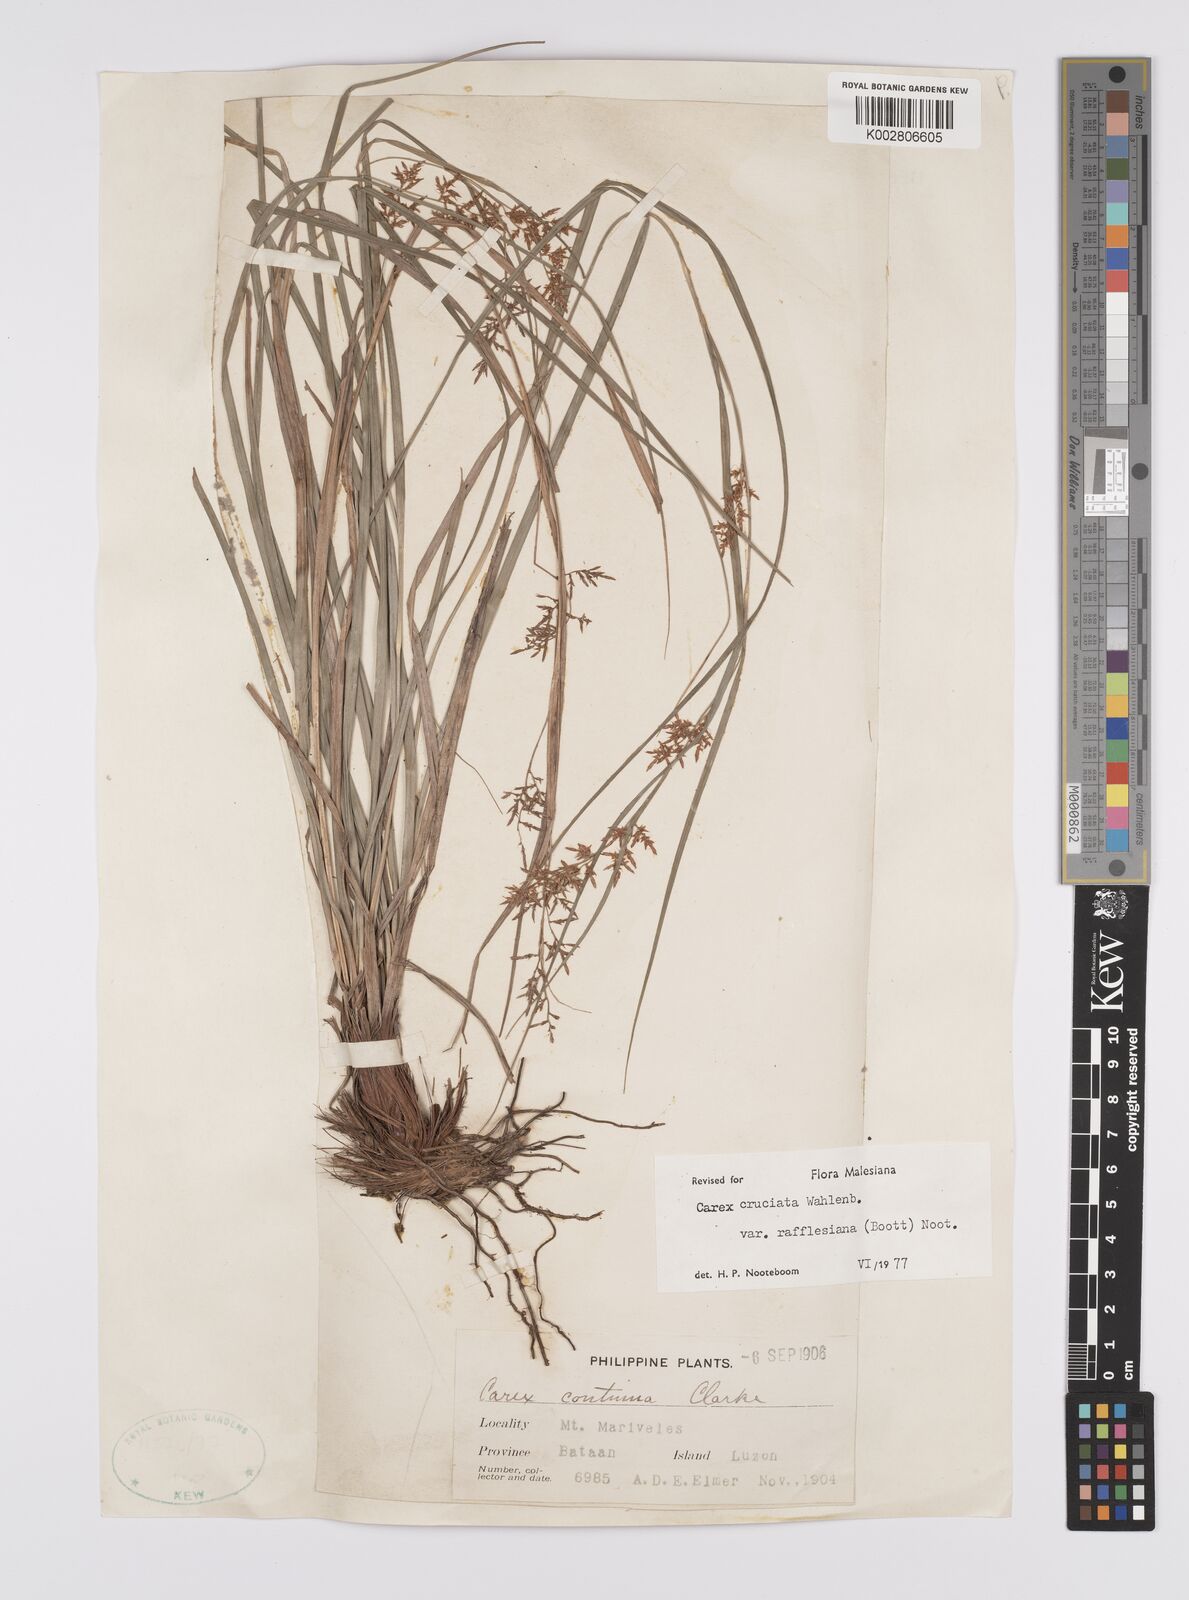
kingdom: Plantae
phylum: Tracheophyta
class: Liliopsida
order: Poales
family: Cyperaceae
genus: Carex
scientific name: Carex rafflesiana
